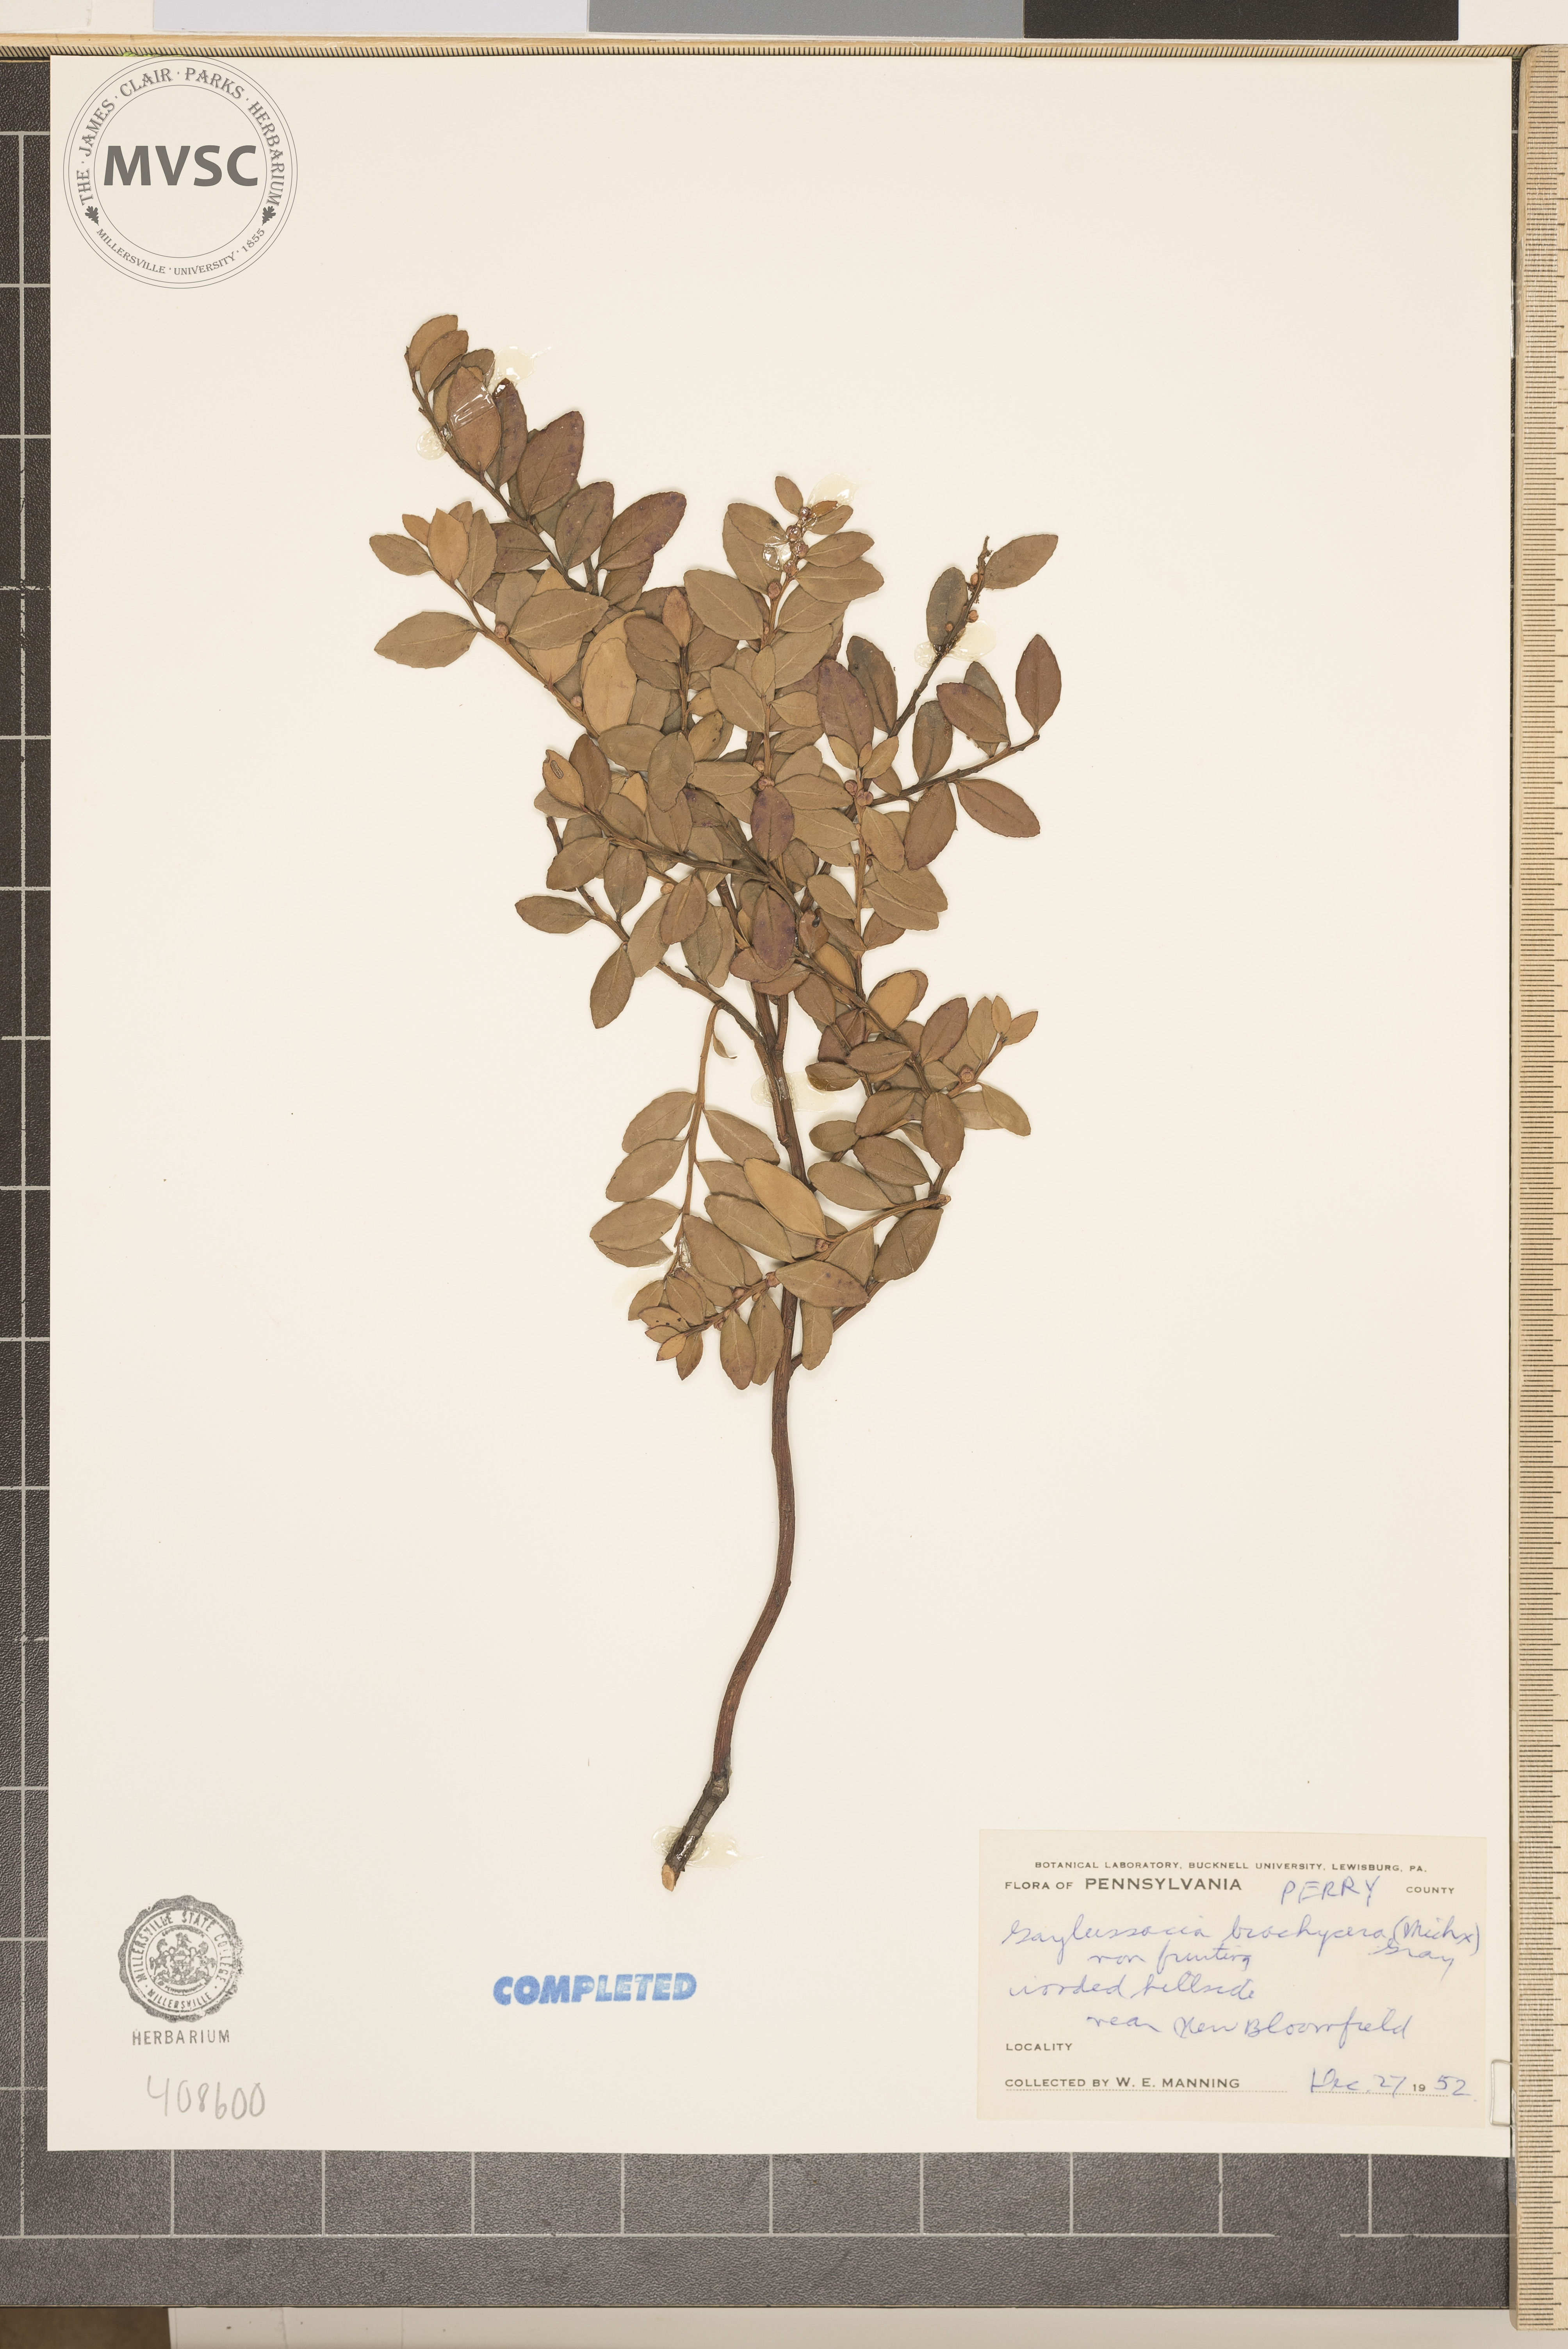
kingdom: Plantae
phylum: Tracheophyta
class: Magnoliopsida
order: Ericales
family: Ericaceae
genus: Gaylussacia
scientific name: Gaylussacia brachycera
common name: Box huckleberry
